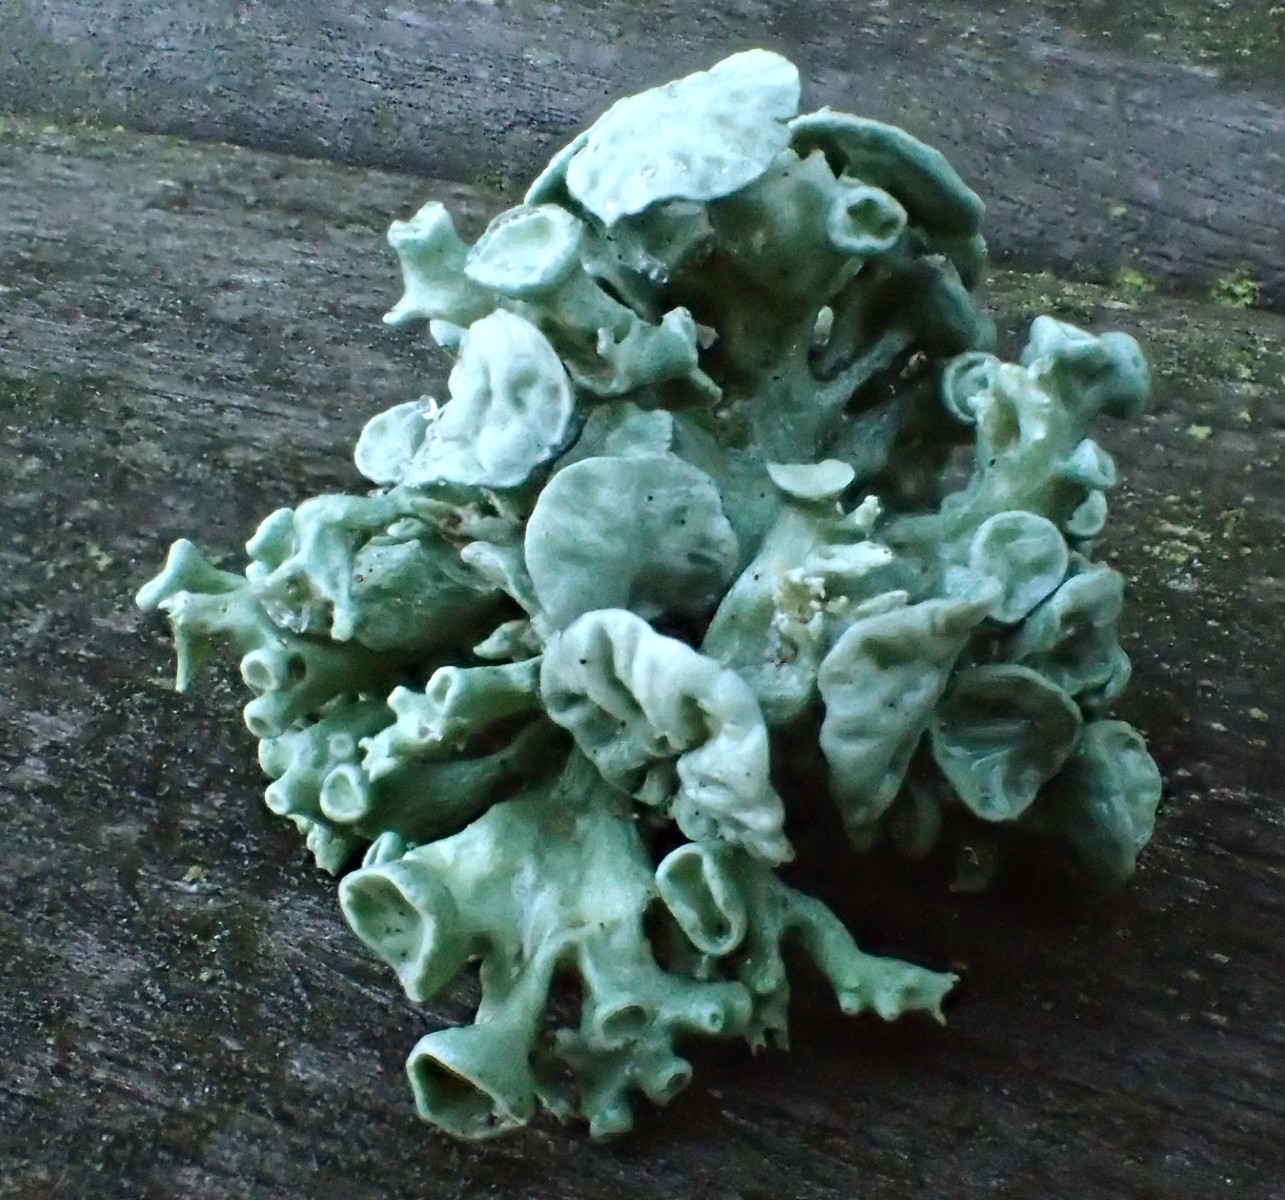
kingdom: Fungi
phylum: Ascomycota
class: Lecanoromycetes
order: Lecanorales
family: Ramalinaceae
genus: Ramalina
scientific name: Ramalina fastigiata
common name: tue-grenlav
